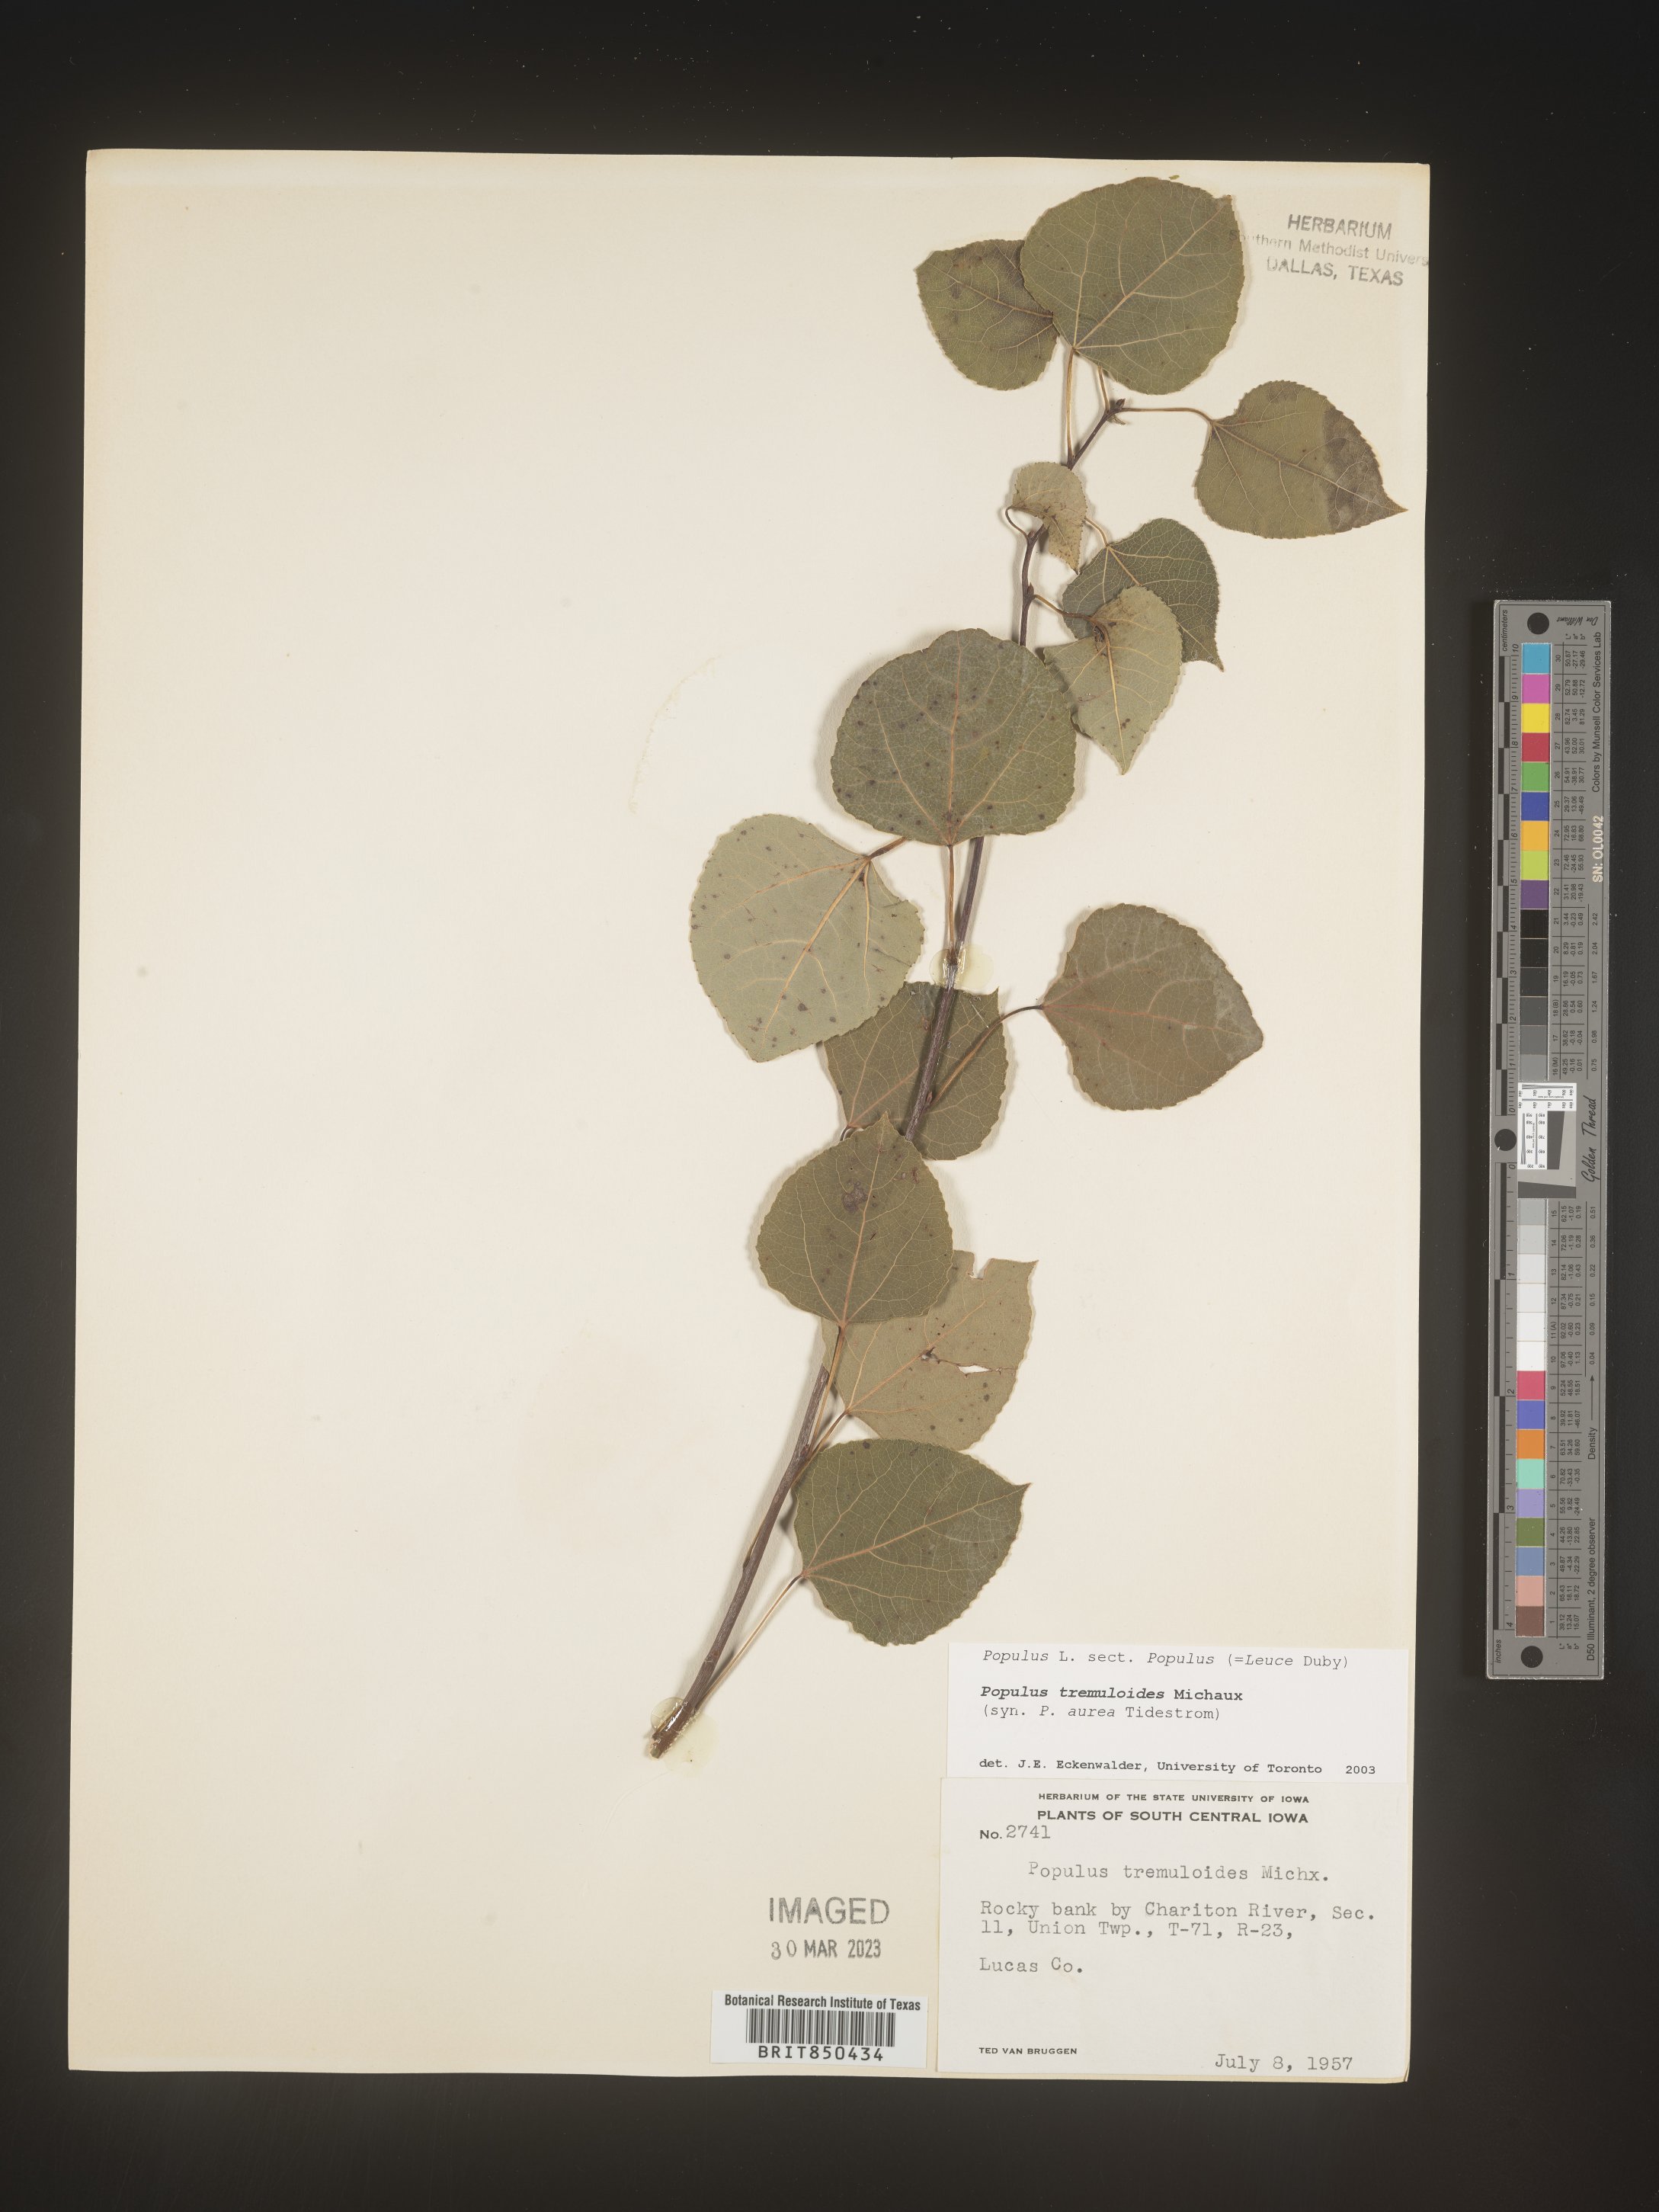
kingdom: Plantae
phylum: Tracheophyta
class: Magnoliopsida
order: Malpighiales
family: Salicaceae
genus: Populus
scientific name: Populus tremuloides
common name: Quaking aspen
